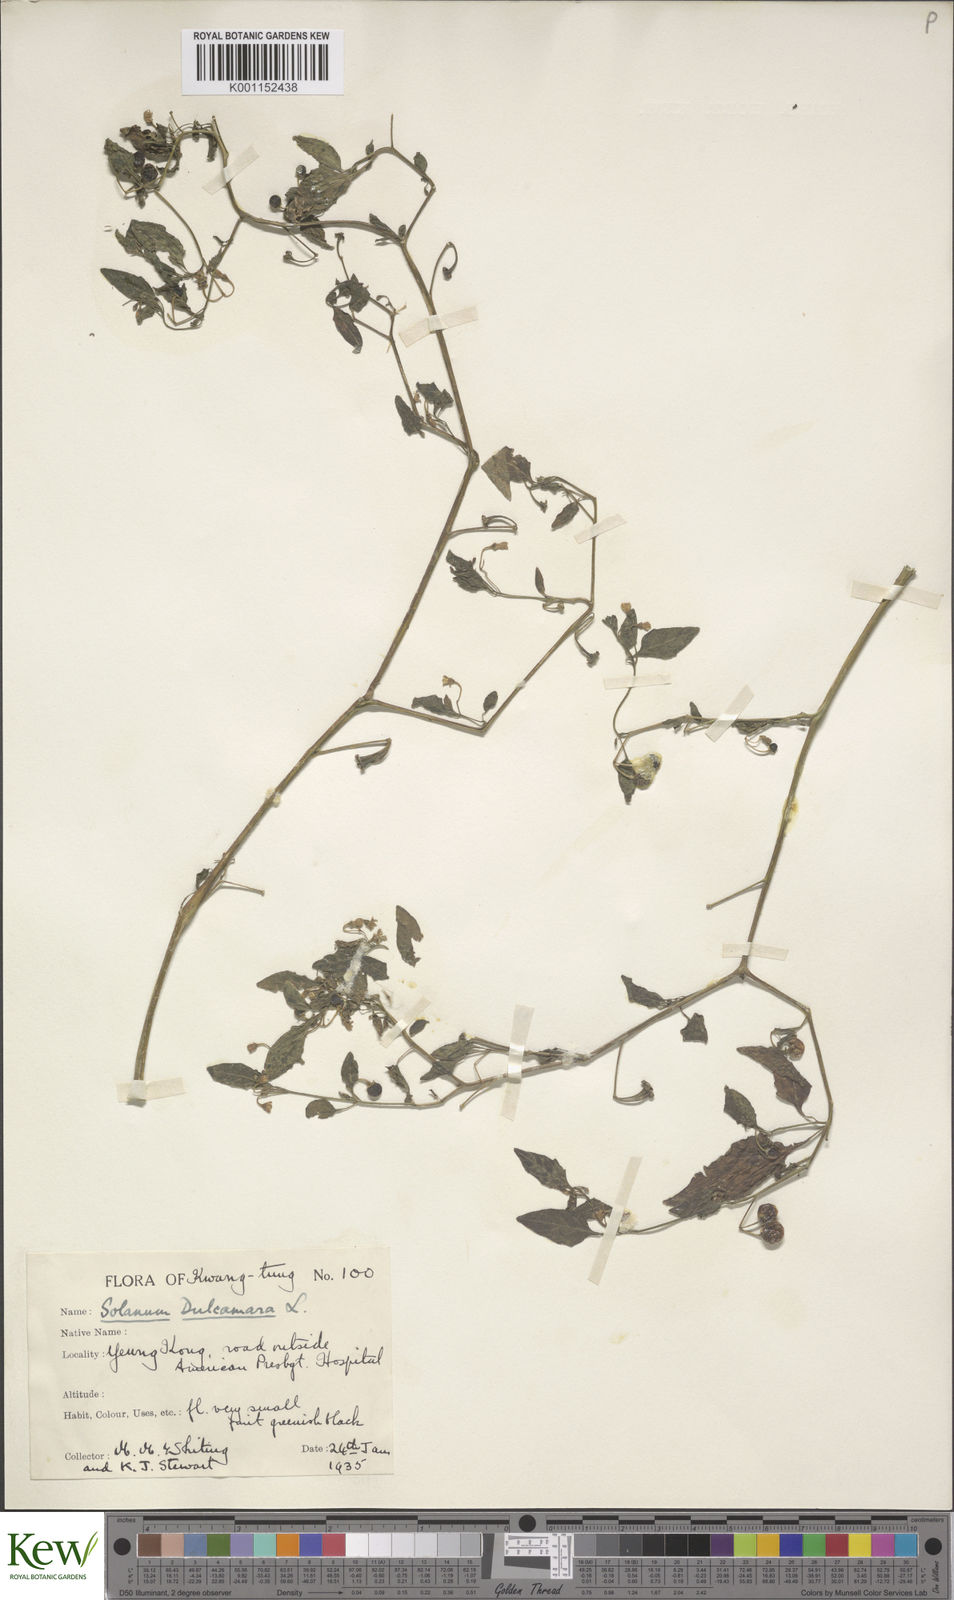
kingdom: Plantae
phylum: Tracheophyta
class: Magnoliopsida
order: Solanales
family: Solanaceae
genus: Solanum
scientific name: Solanum americanum
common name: American black nightshade
